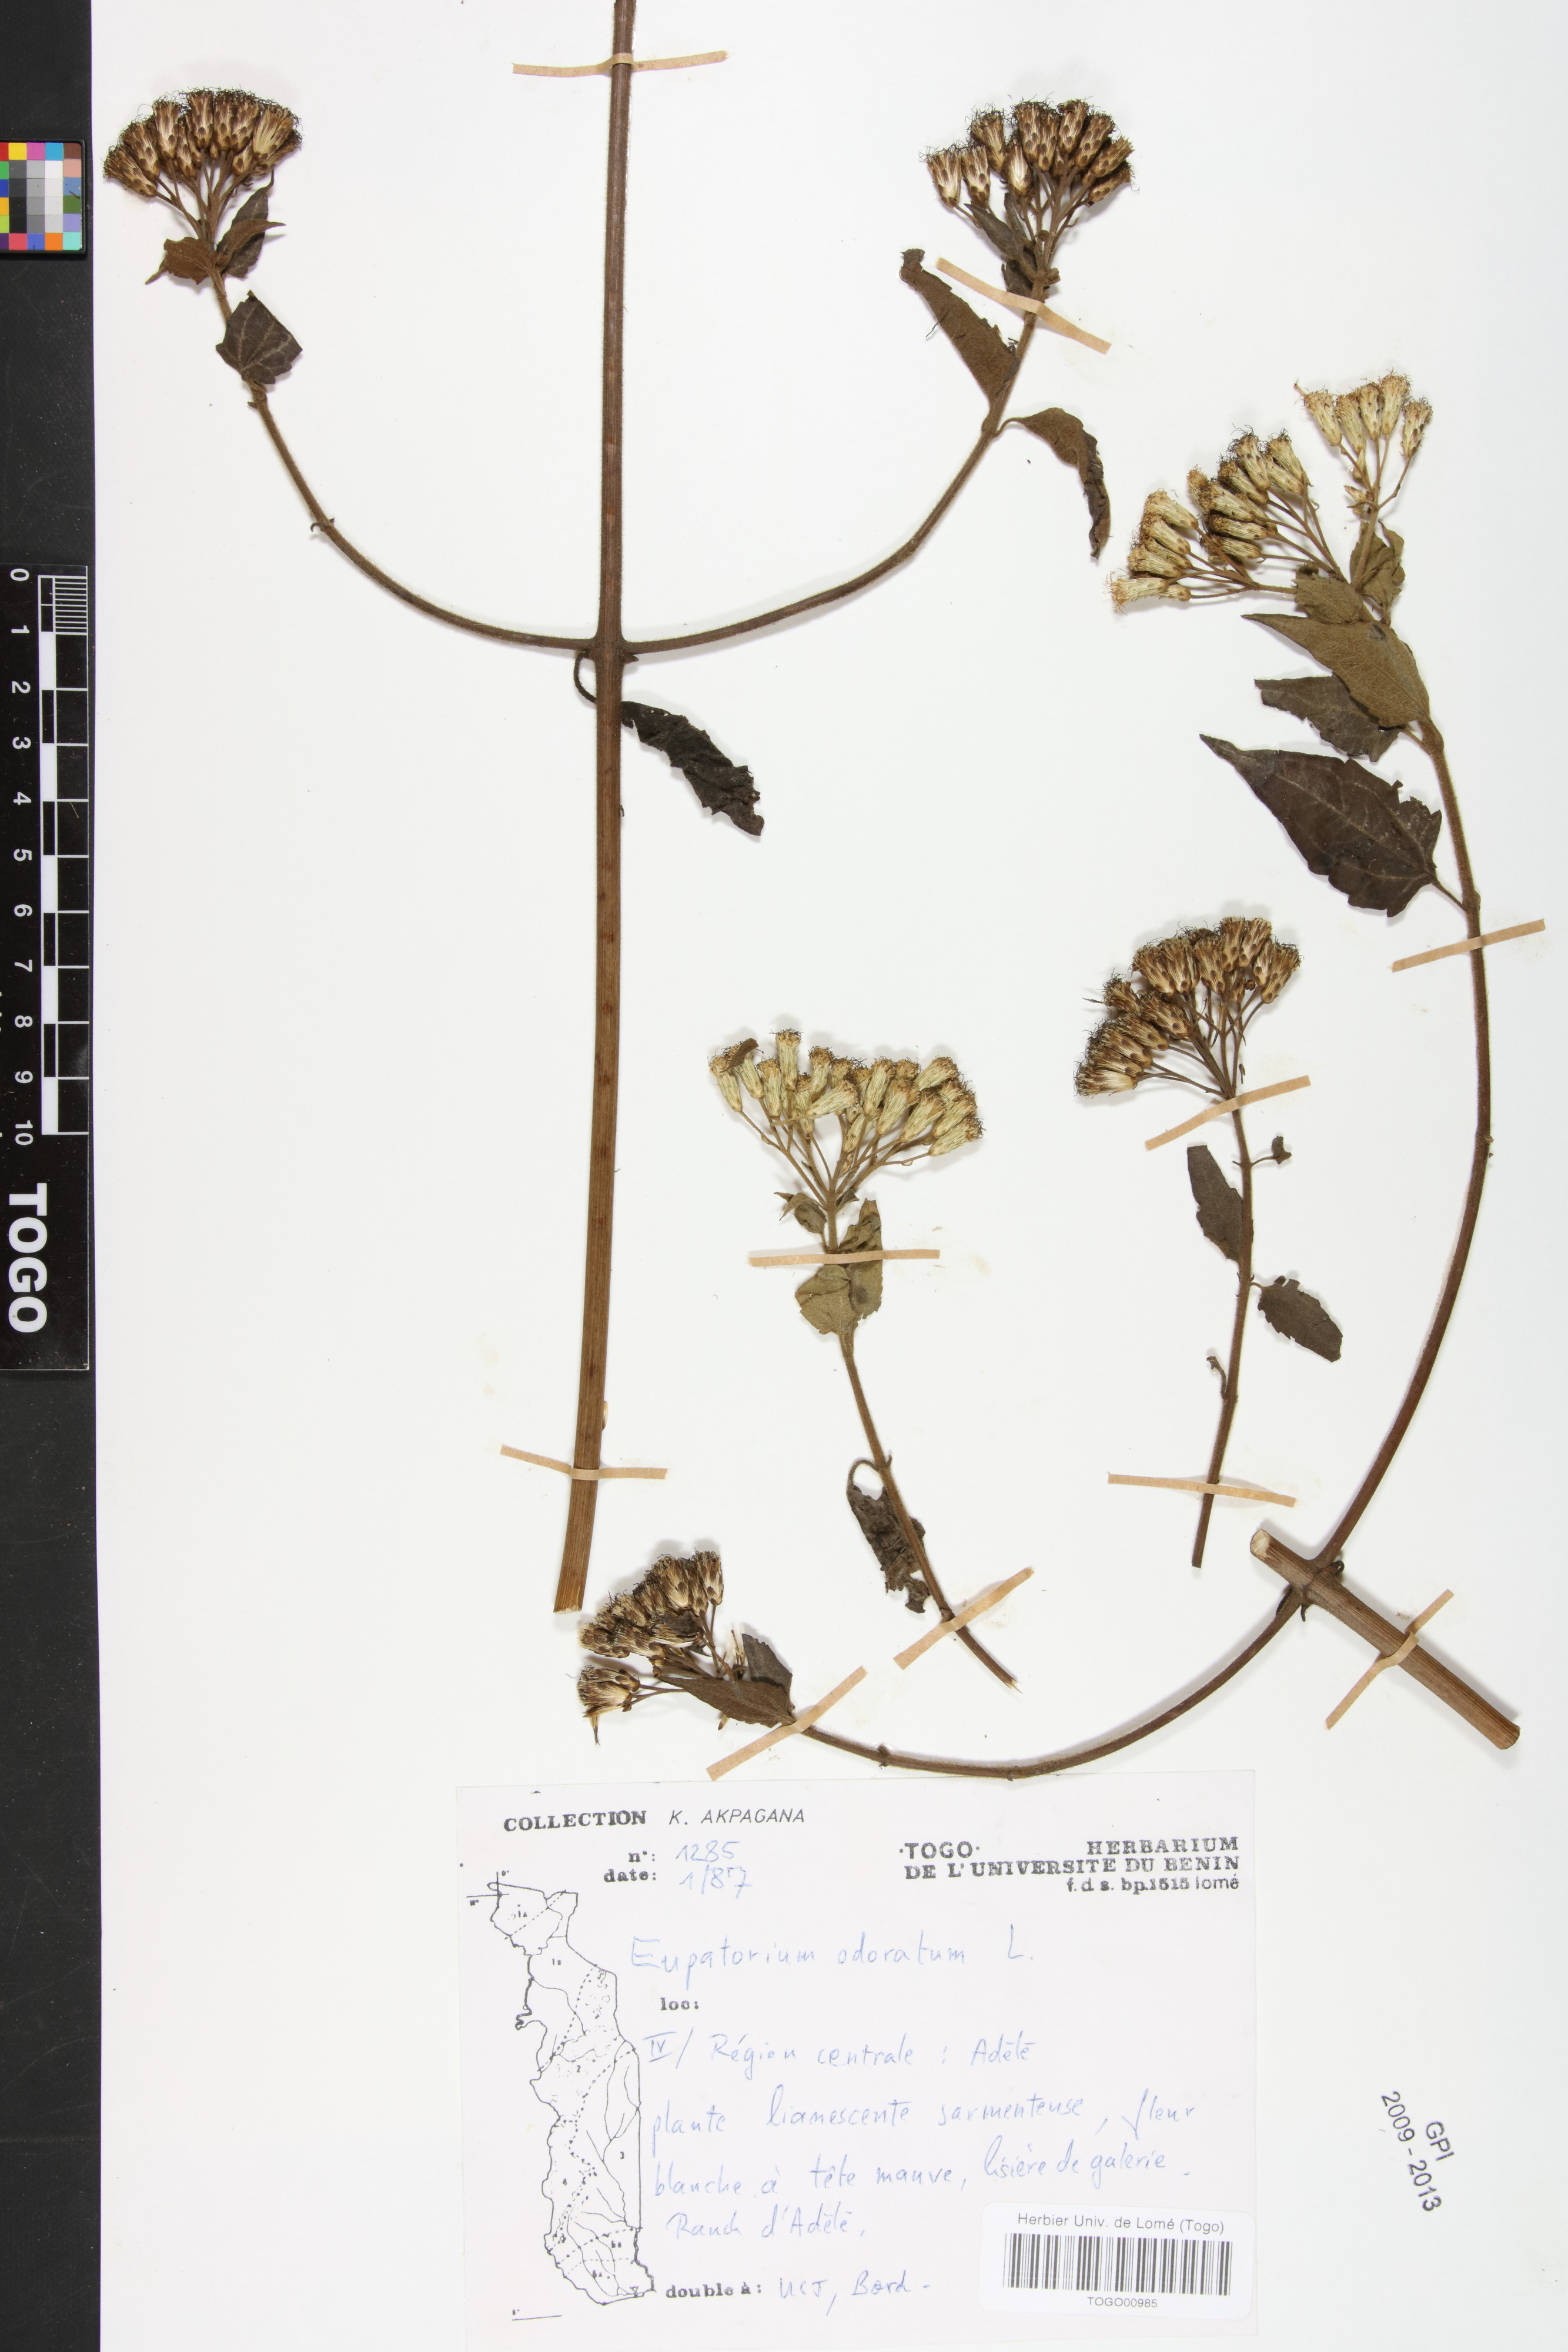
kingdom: Plantae
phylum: Tracheophyta
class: Magnoliopsida
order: Asterales
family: Asteraceae
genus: Chromolaena
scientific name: Chromolaena odorata
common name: Siamweed
